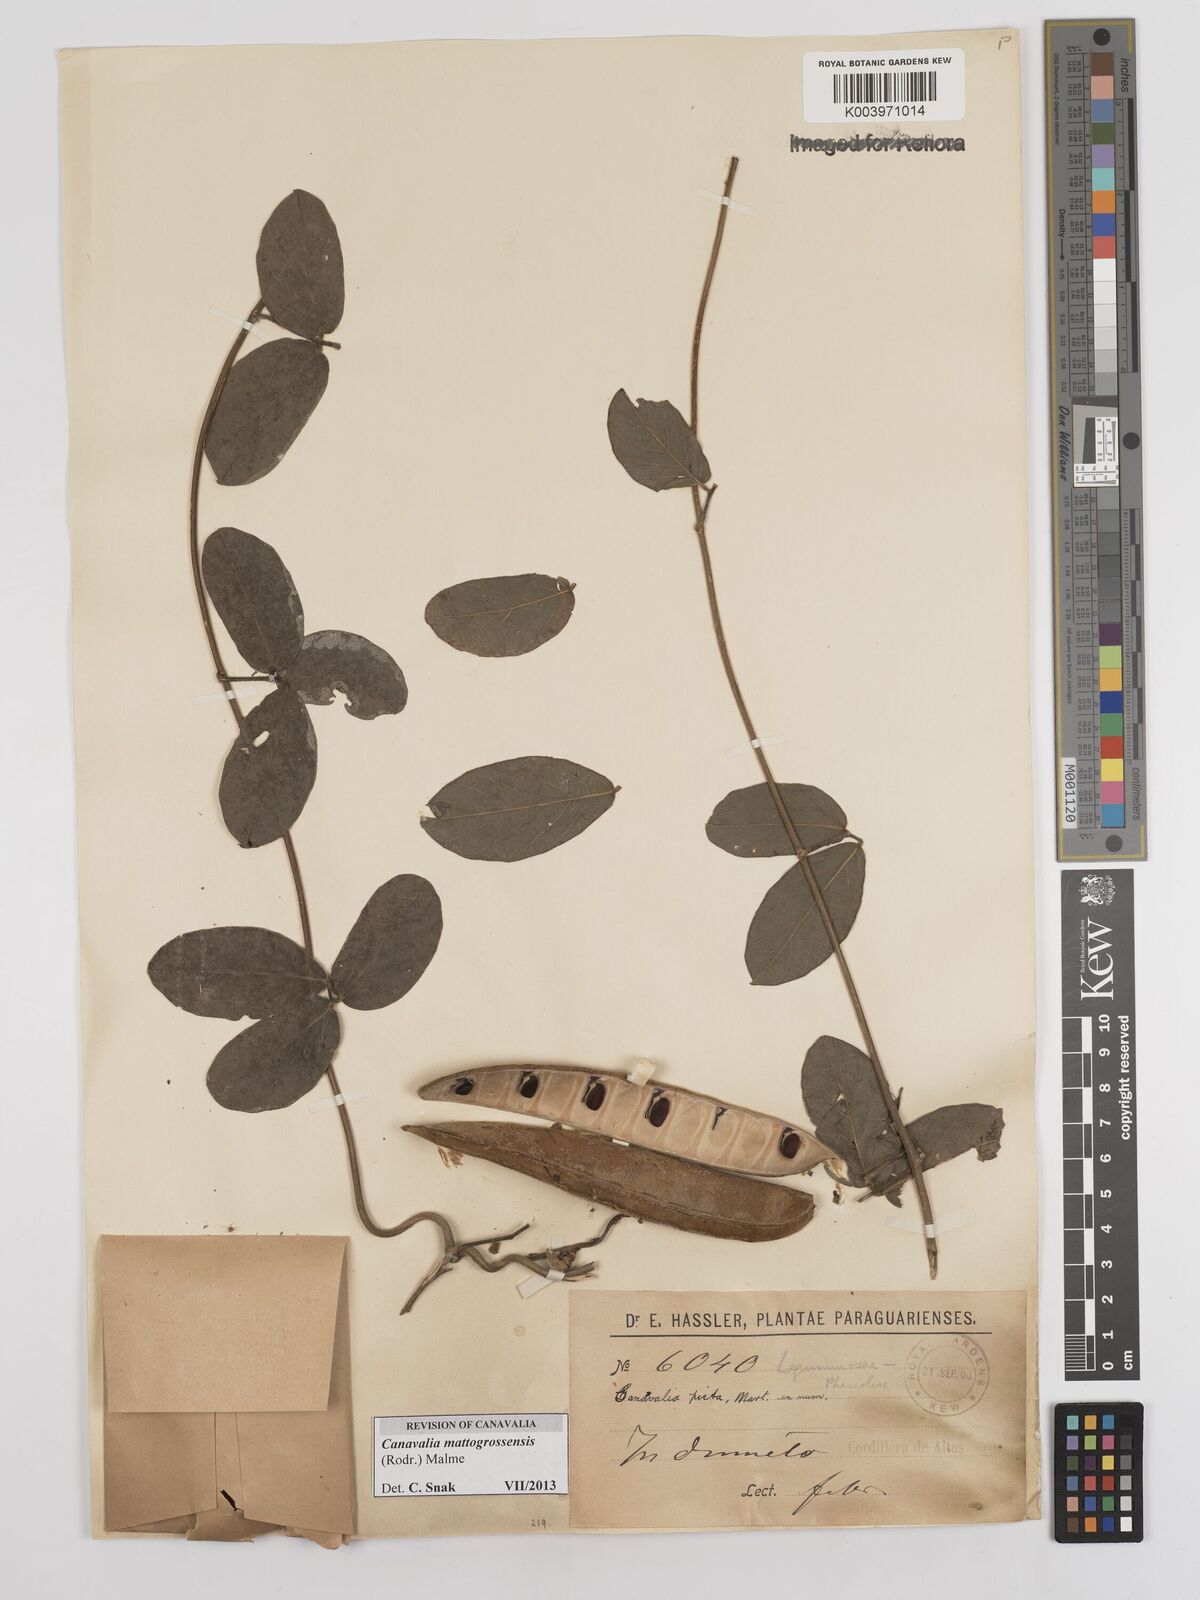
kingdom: Plantae
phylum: Tracheophyta
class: Magnoliopsida
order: Fabales
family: Fabaceae
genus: Canavalia
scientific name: Canavalia picta
